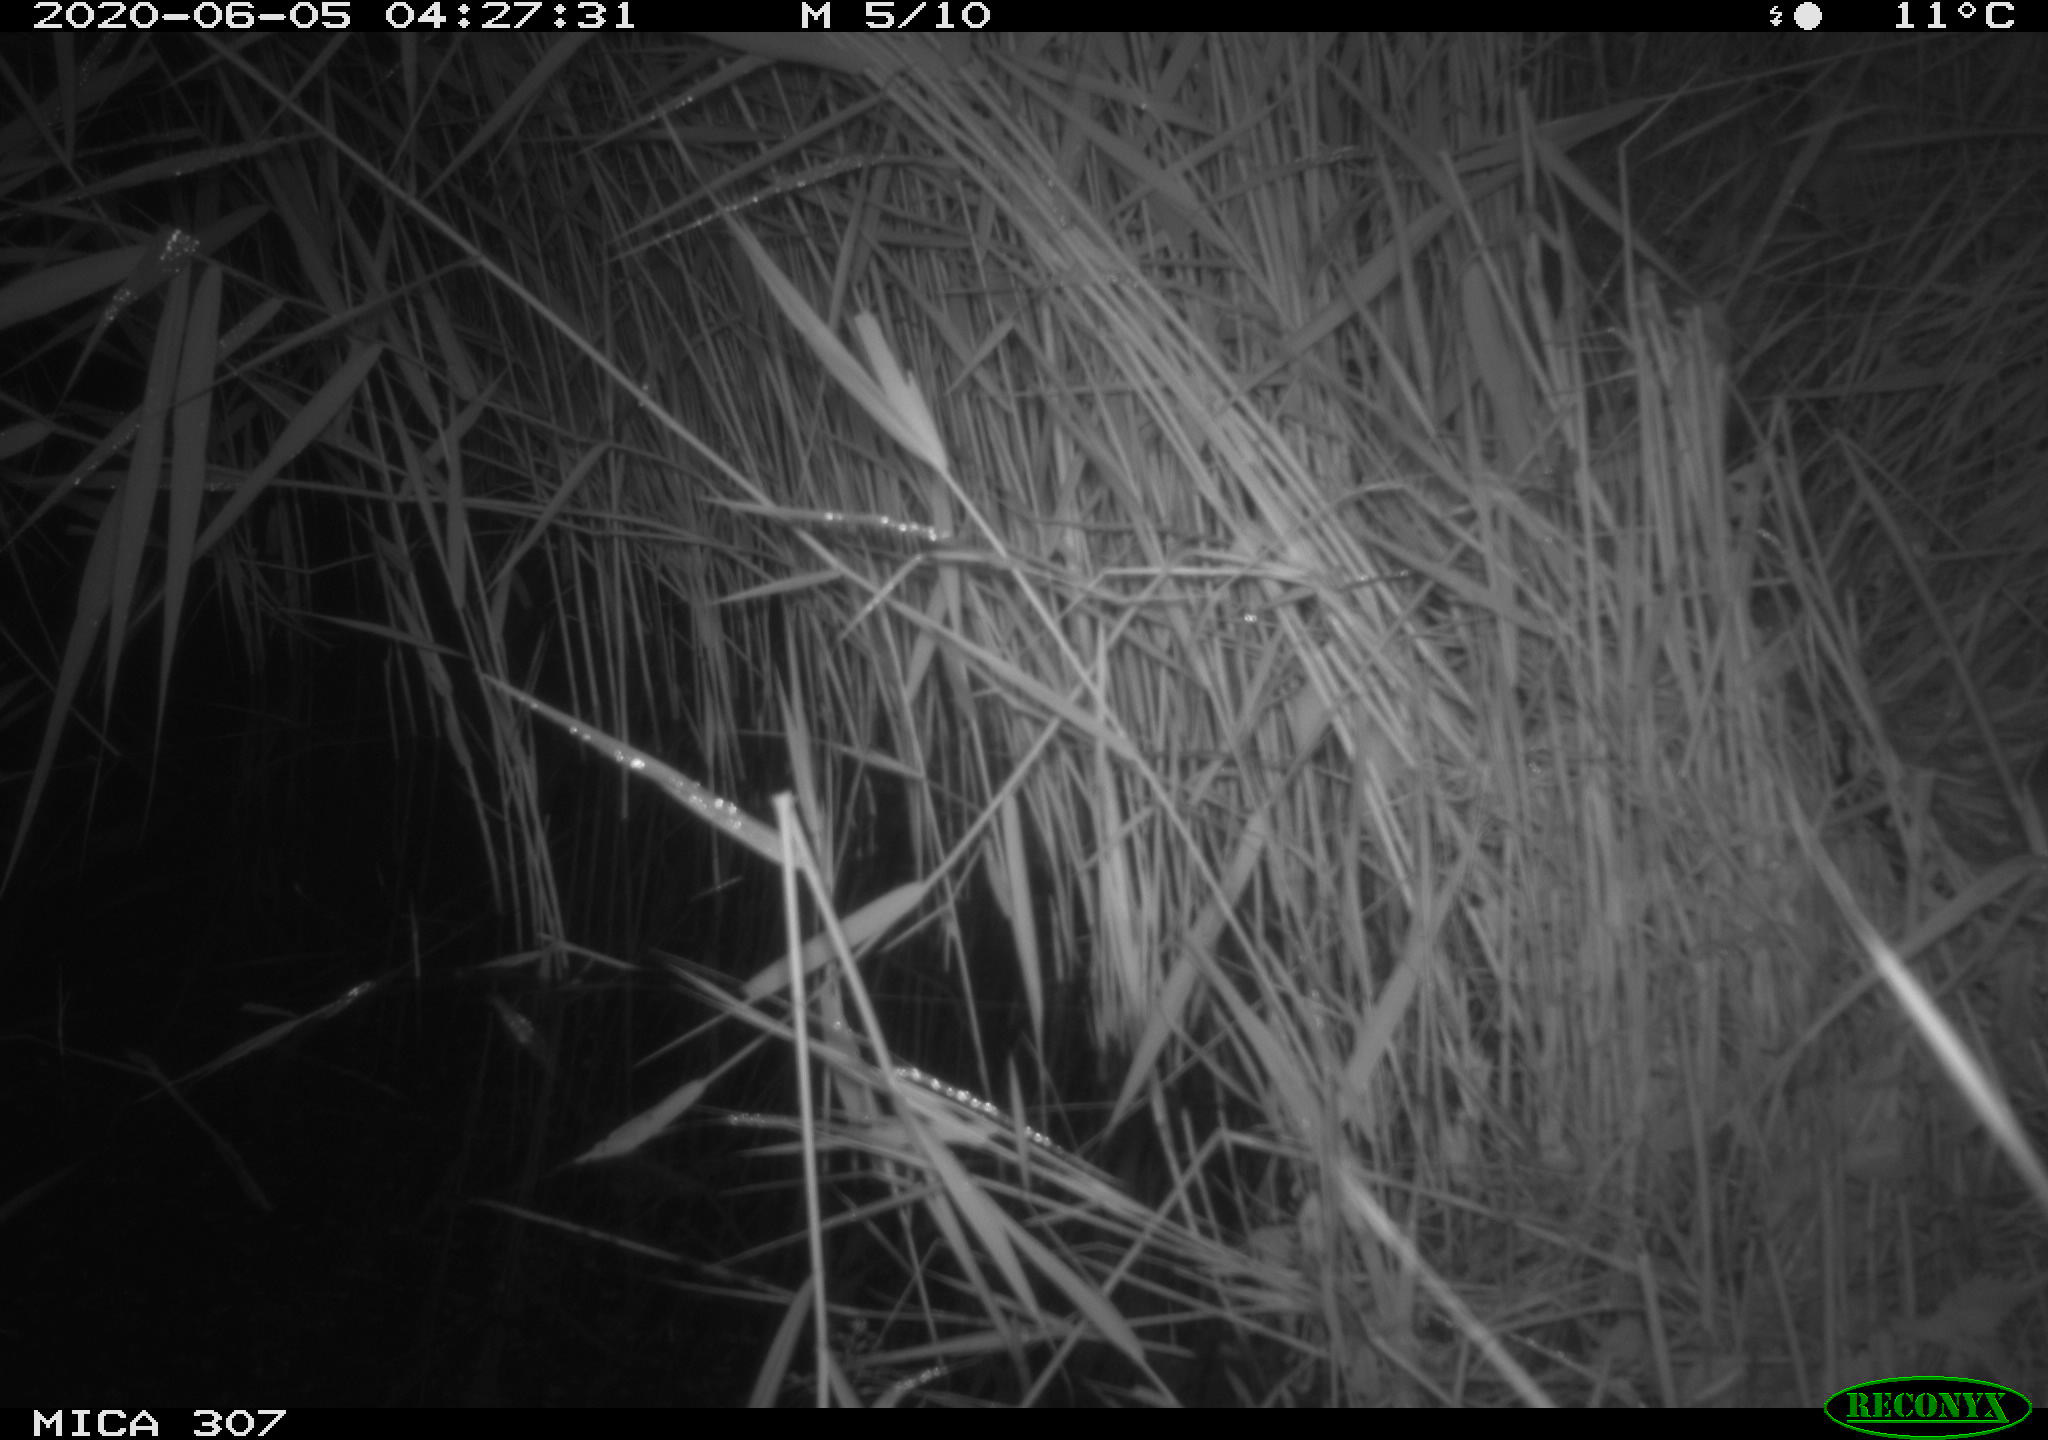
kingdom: Animalia
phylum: Chordata
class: Mammalia
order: Rodentia
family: Muridae
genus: Rattus
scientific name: Rattus norvegicus
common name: Brown rat
